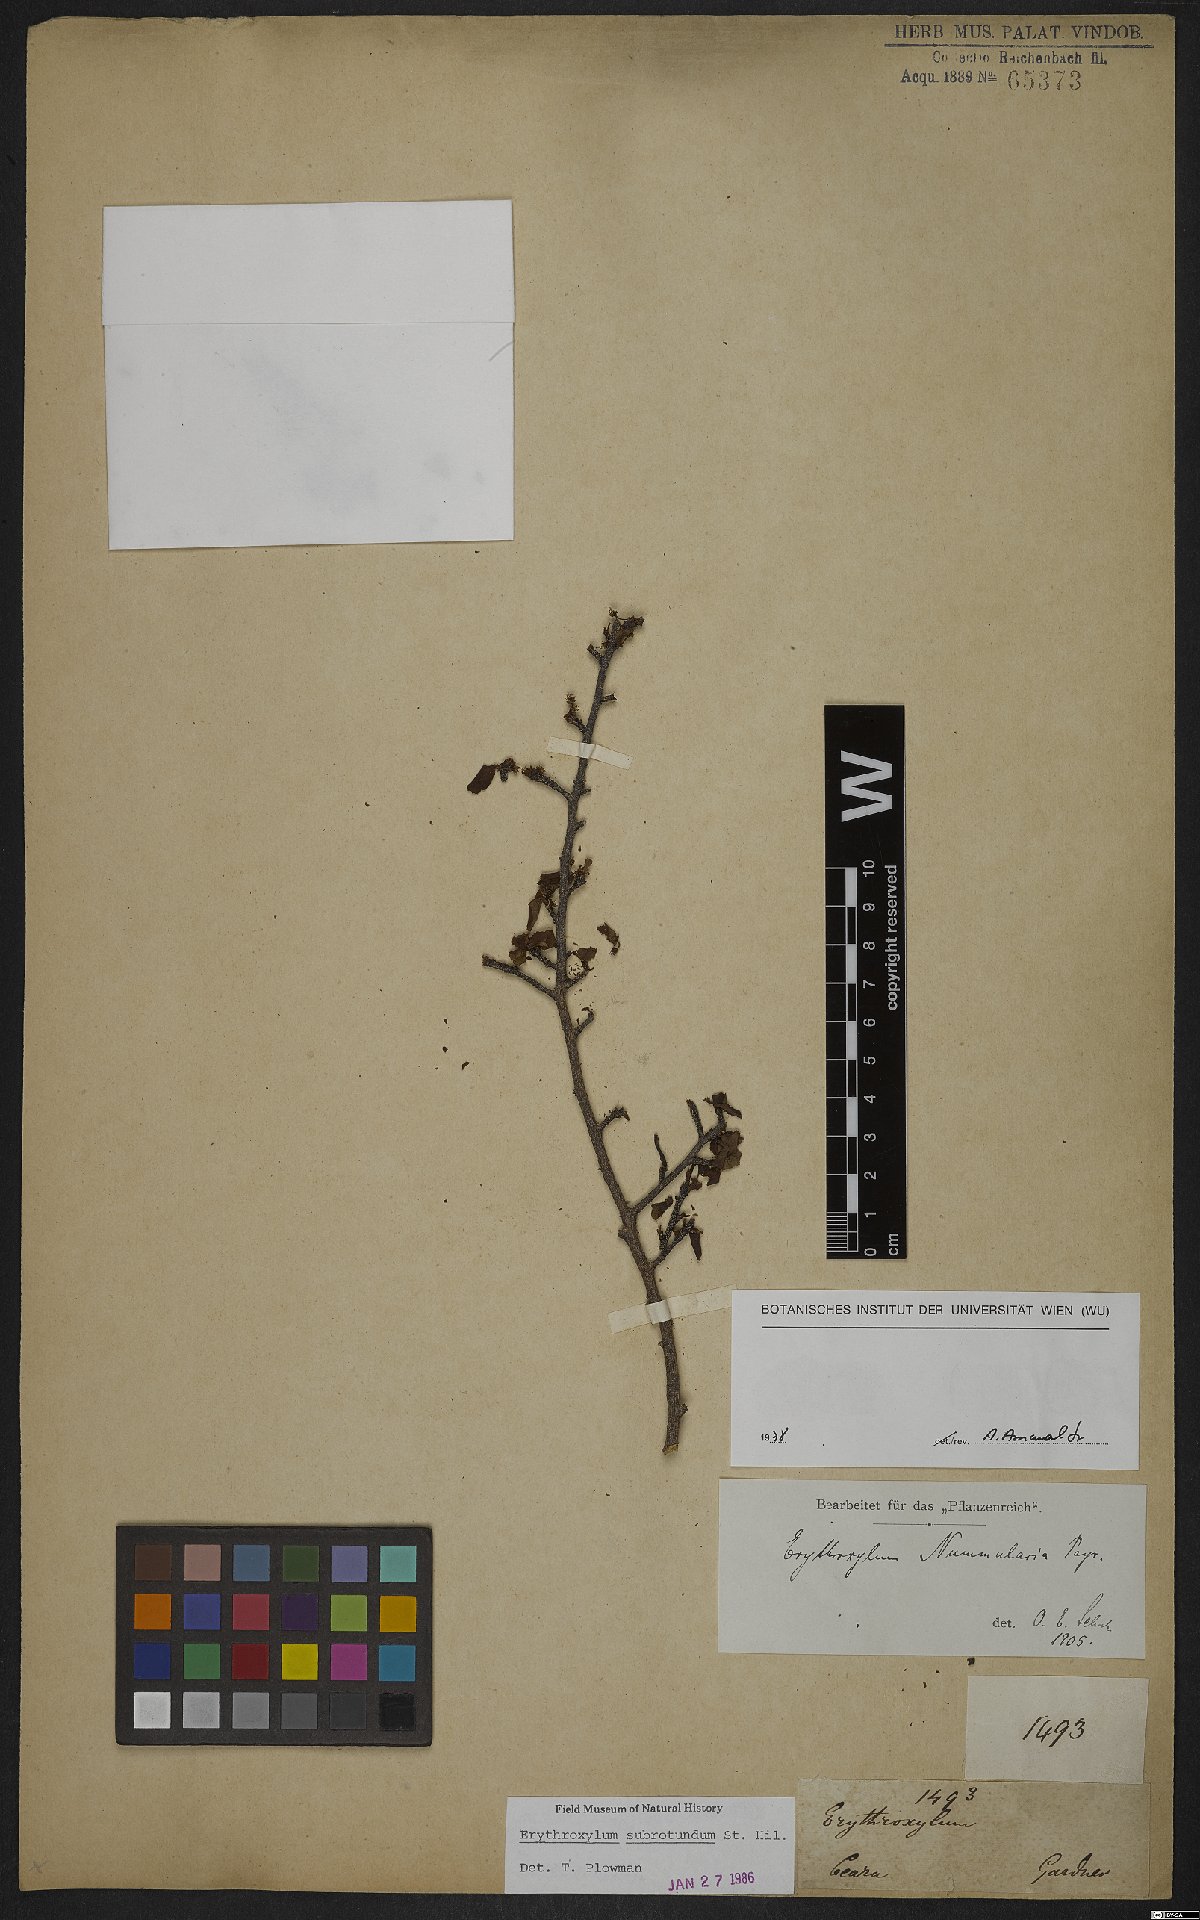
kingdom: Plantae
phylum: Tracheophyta
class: Magnoliopsida
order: Malpighiales
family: Erythroxylaceae
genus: Erythroxylum
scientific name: Erythroxylum subrotundum
